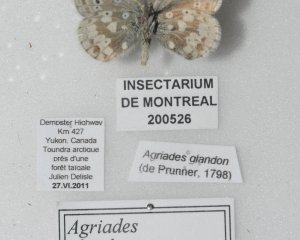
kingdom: Animalia
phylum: Arthropoda
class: Insecta
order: Lepidoptera
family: Lycaenidae
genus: Agriades
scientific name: Agriades glandon
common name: Arctic Blue
